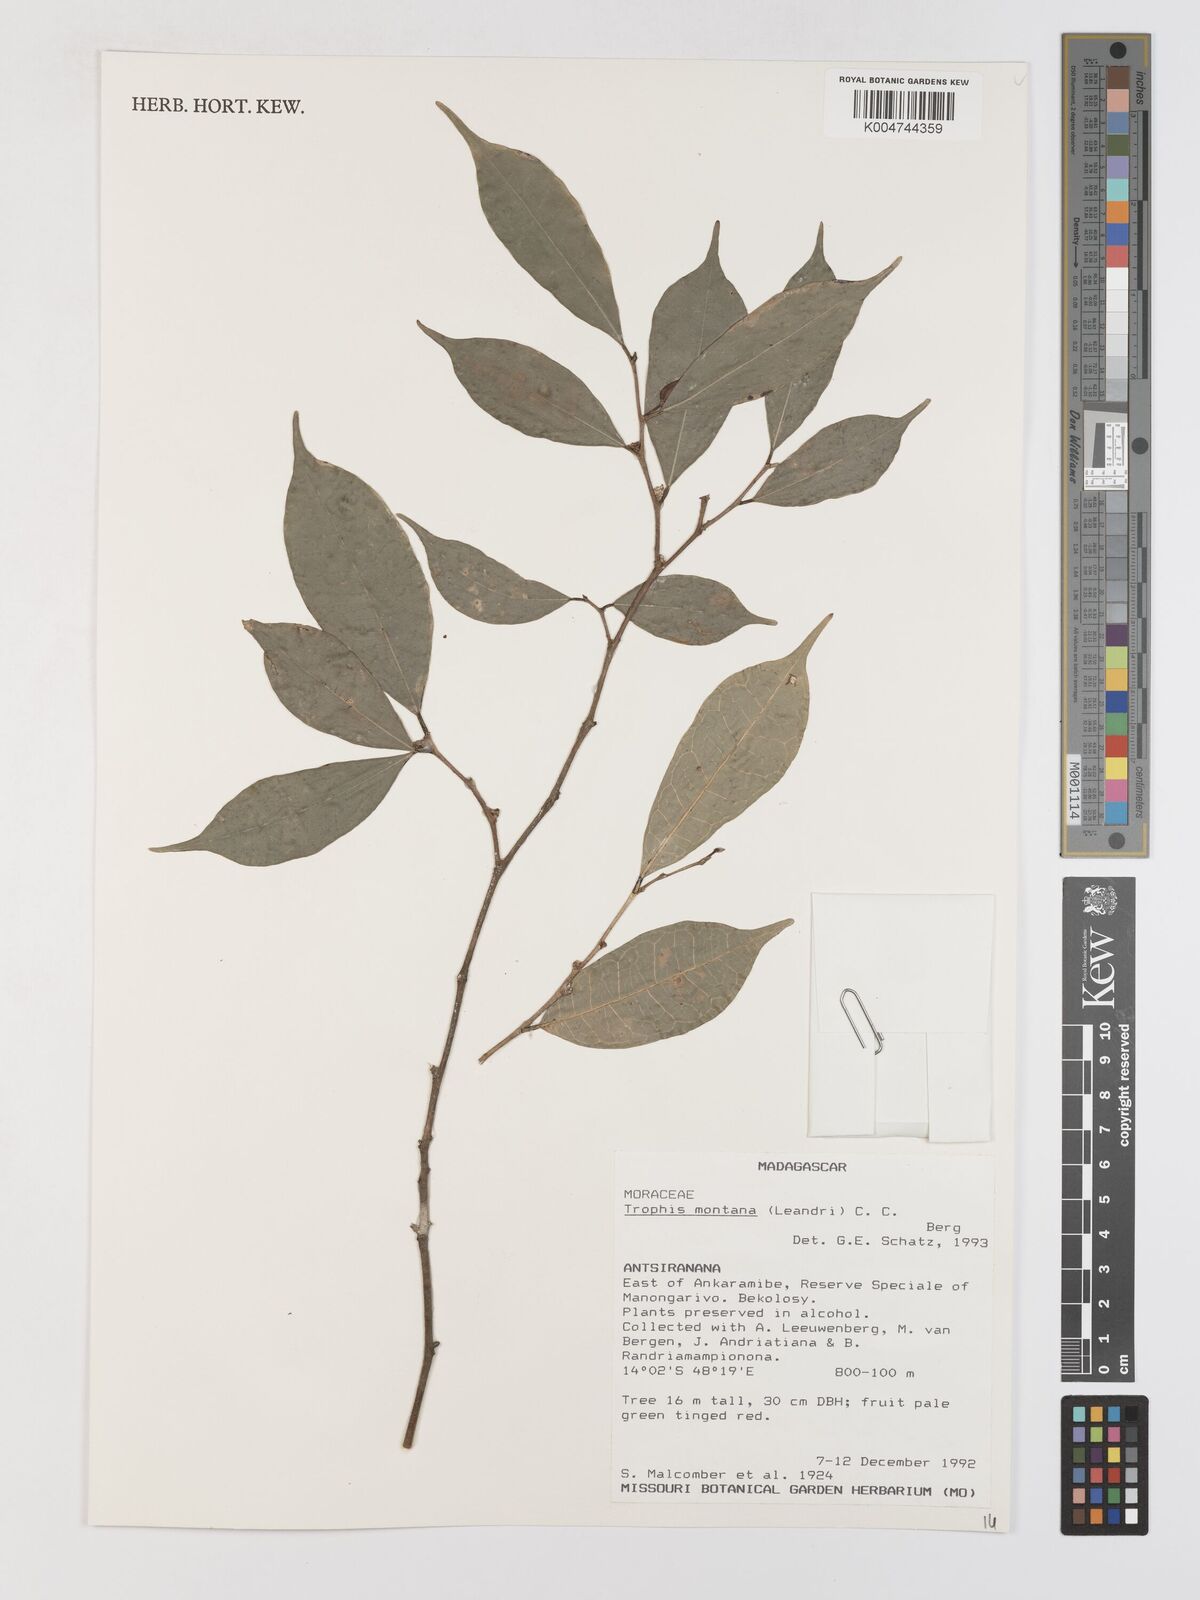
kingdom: Plantae
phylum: Tracheophyta
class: Magnoliopsida
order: Rosales
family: Moraceae
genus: Maillardia
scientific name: Maillardia montana
